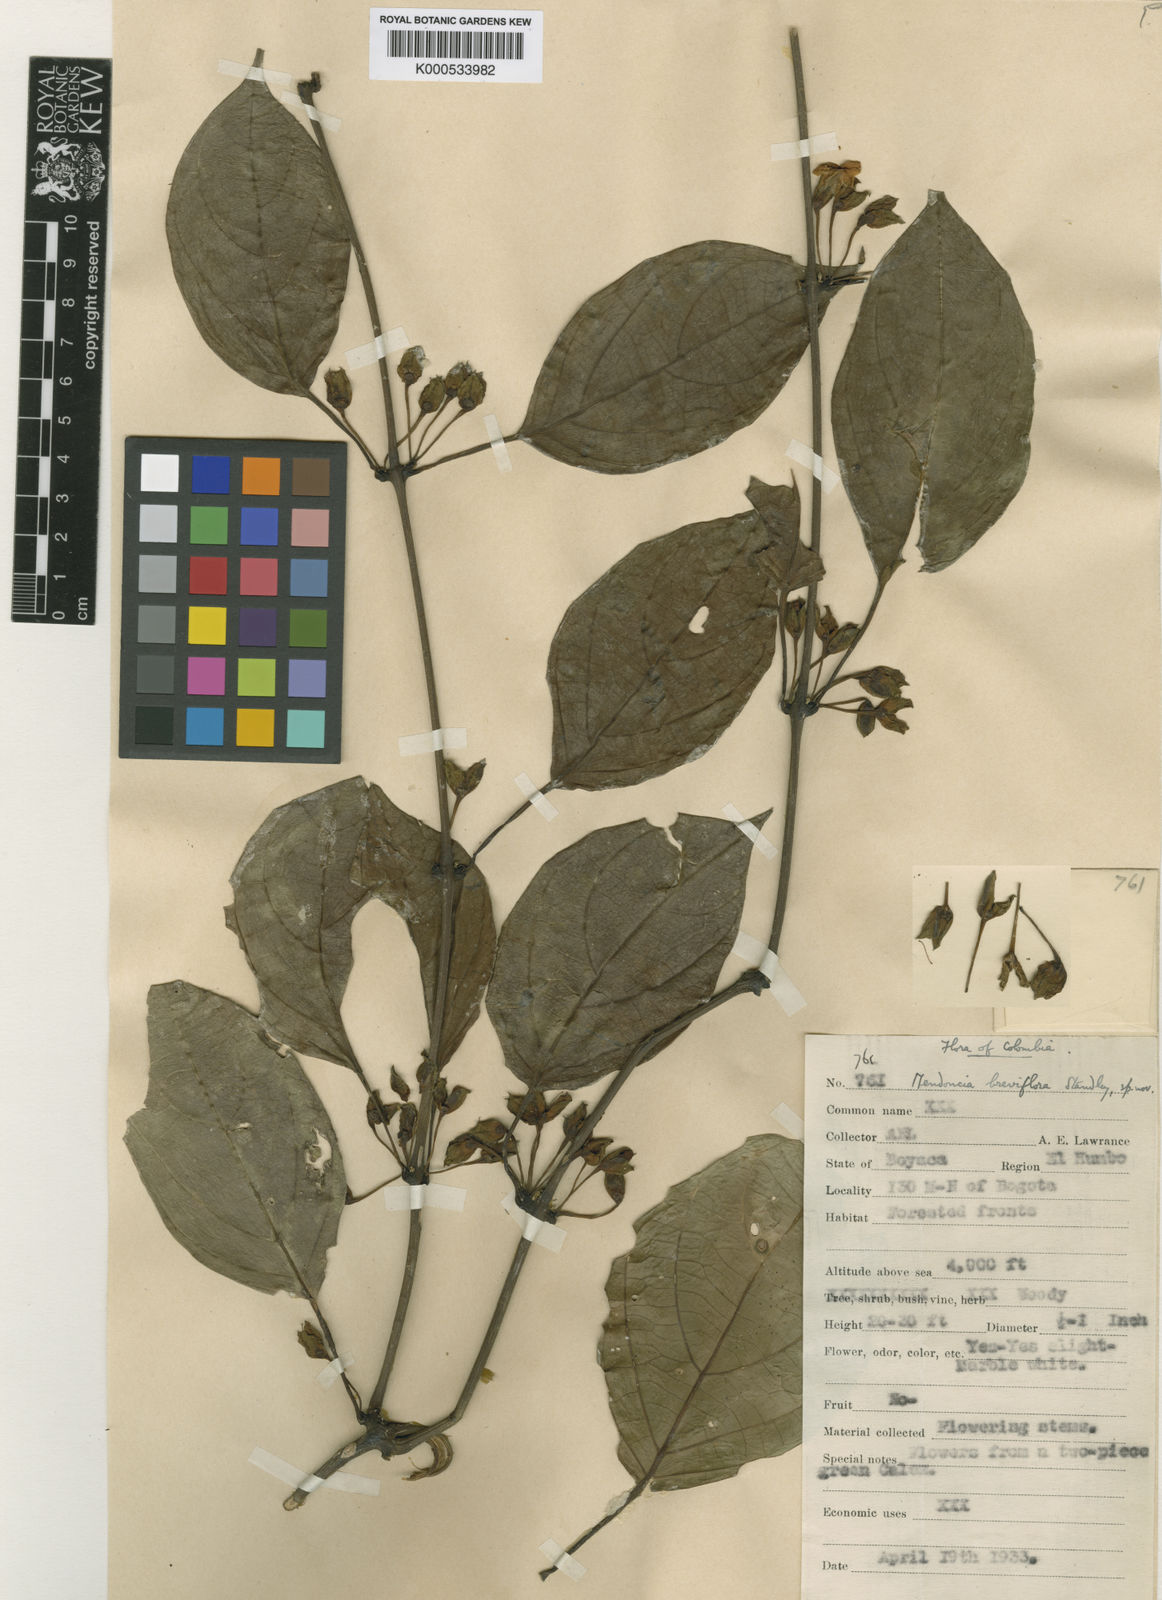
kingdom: Plantae
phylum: Tracheophyta
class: Magnoliopsida
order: Lamiales
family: Acanthaceae
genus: Mendoncia
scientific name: Mendoncia
